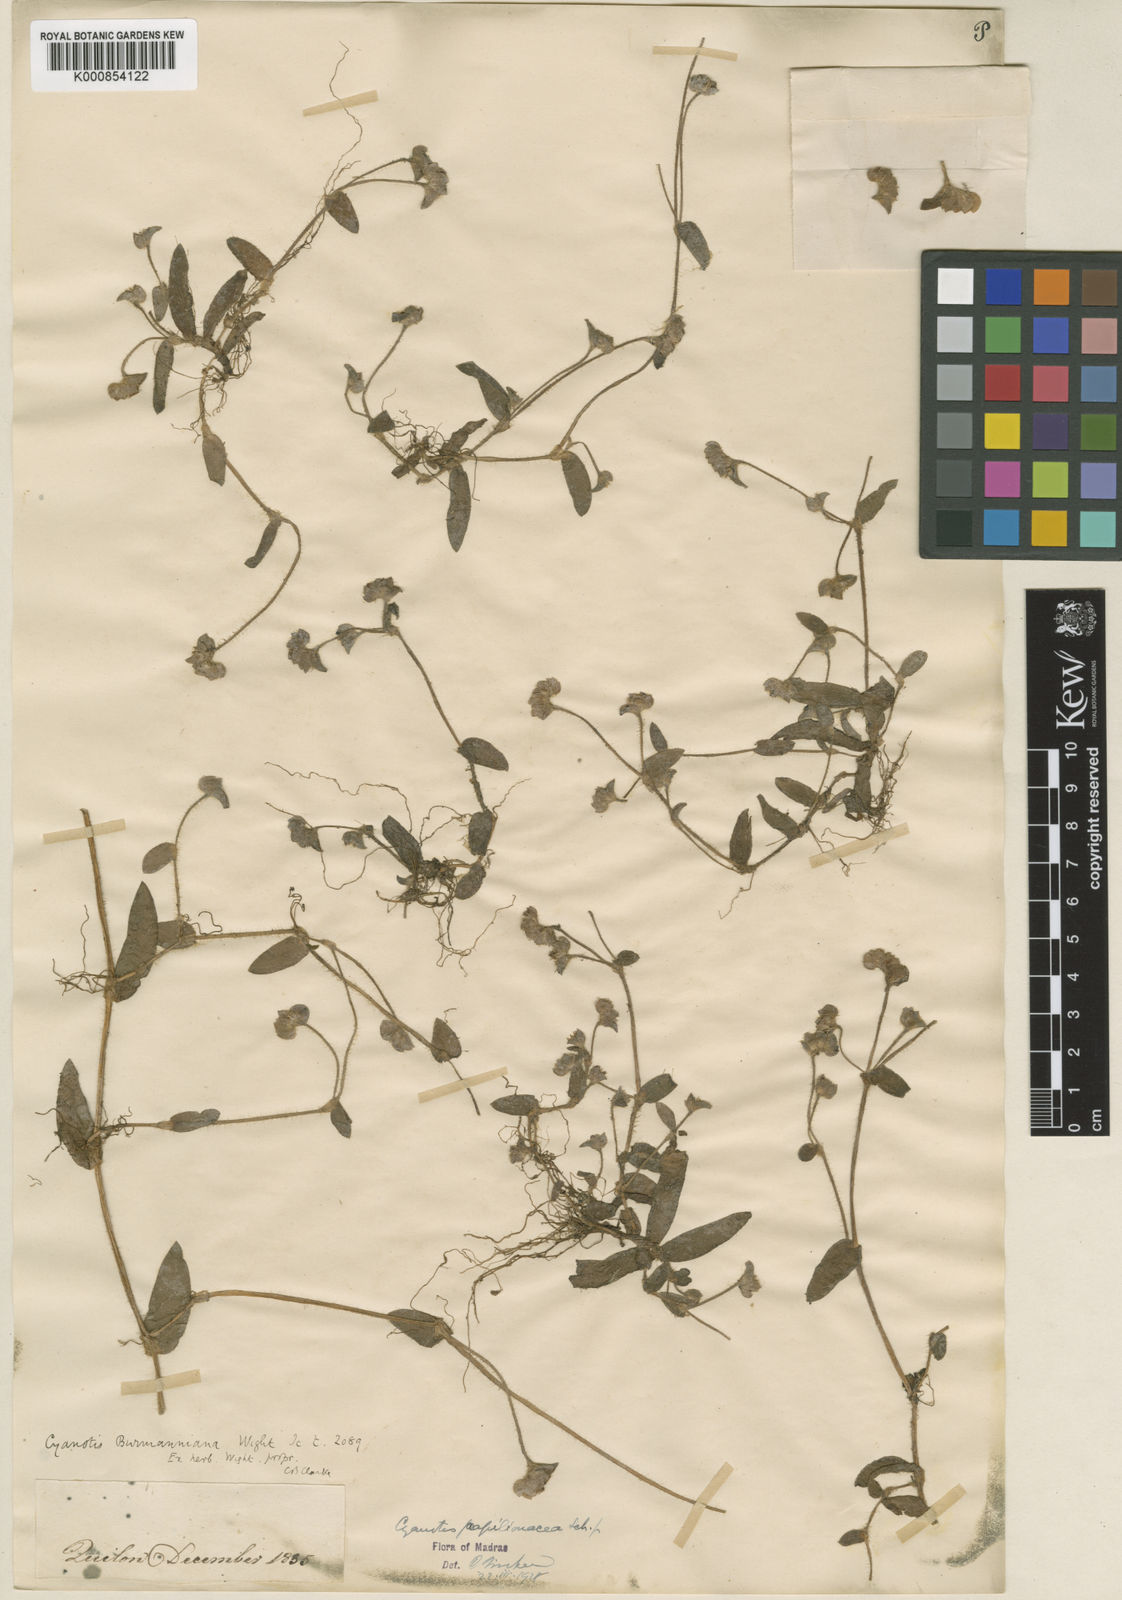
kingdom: Plantae
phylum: Tracheophyta
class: Liliopsida
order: Commelinales
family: Commelinaceae
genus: Cyanotis
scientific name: Cyanotis cristata
